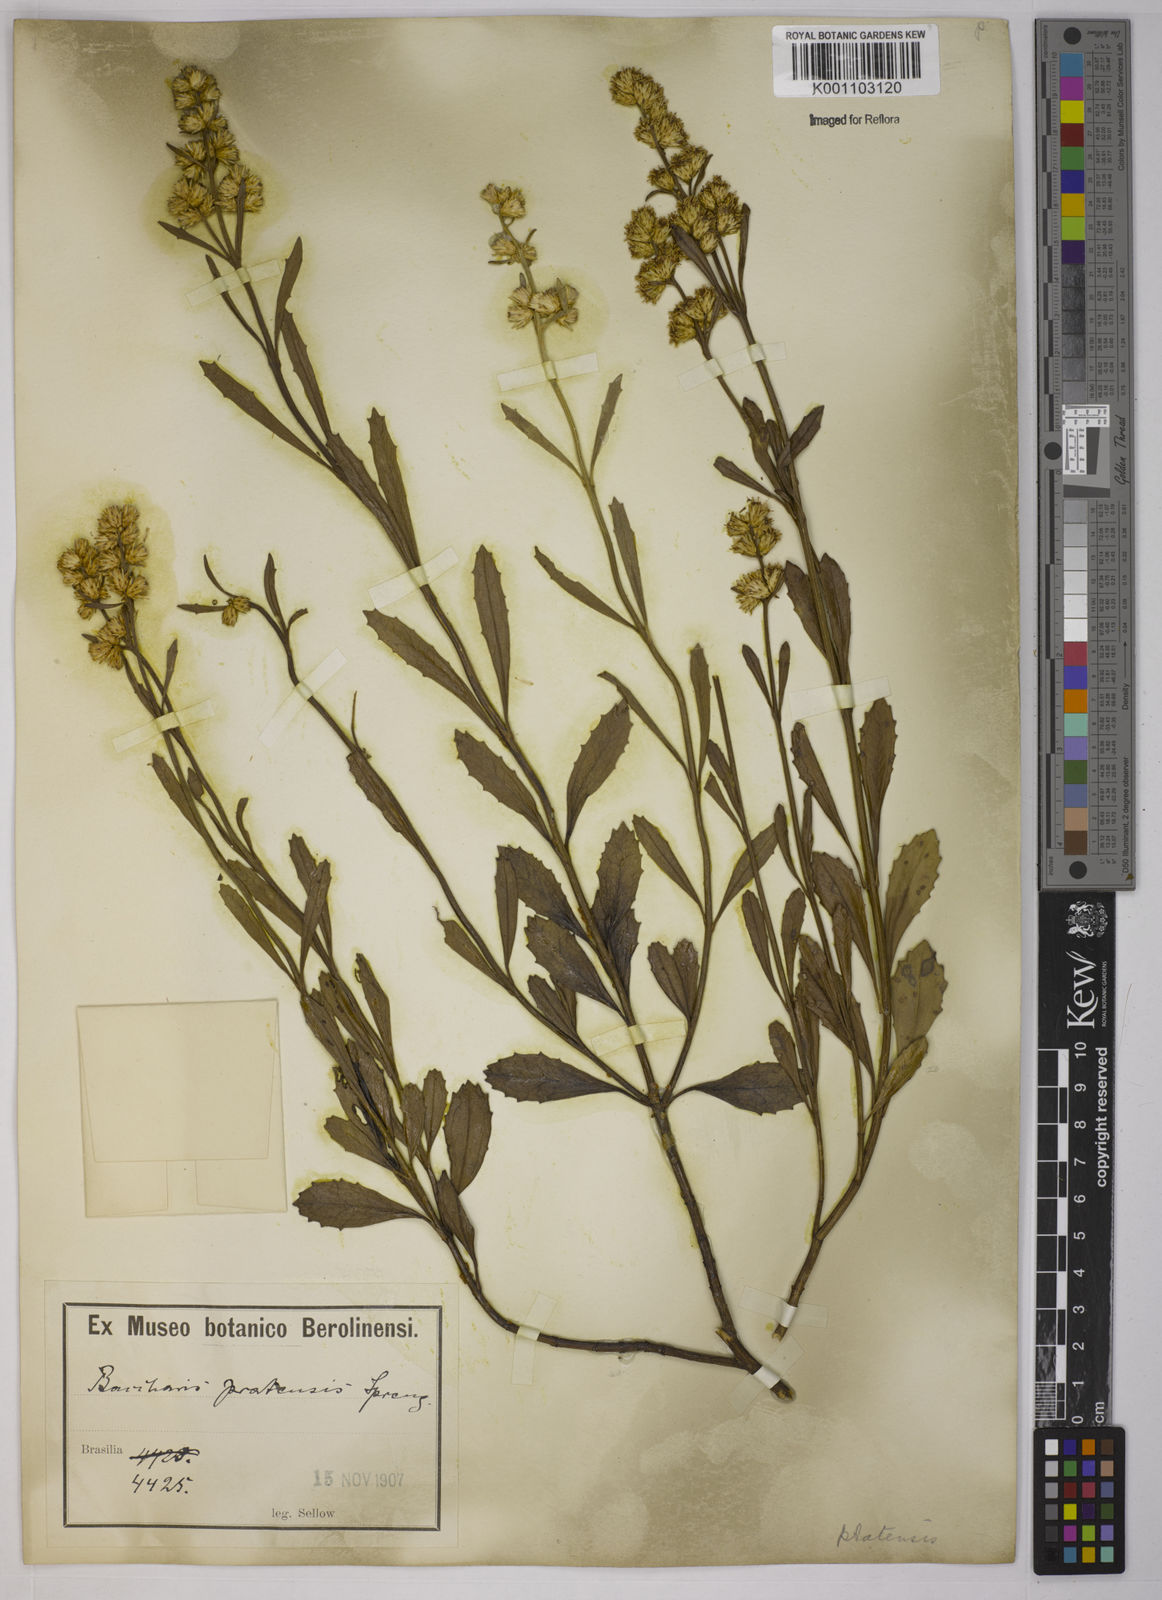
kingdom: Plantae
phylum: Tracheophyta
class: Magnoliopsida
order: Asterales
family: Asteraceae
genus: Baccharis
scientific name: Baccharis hieronymi
